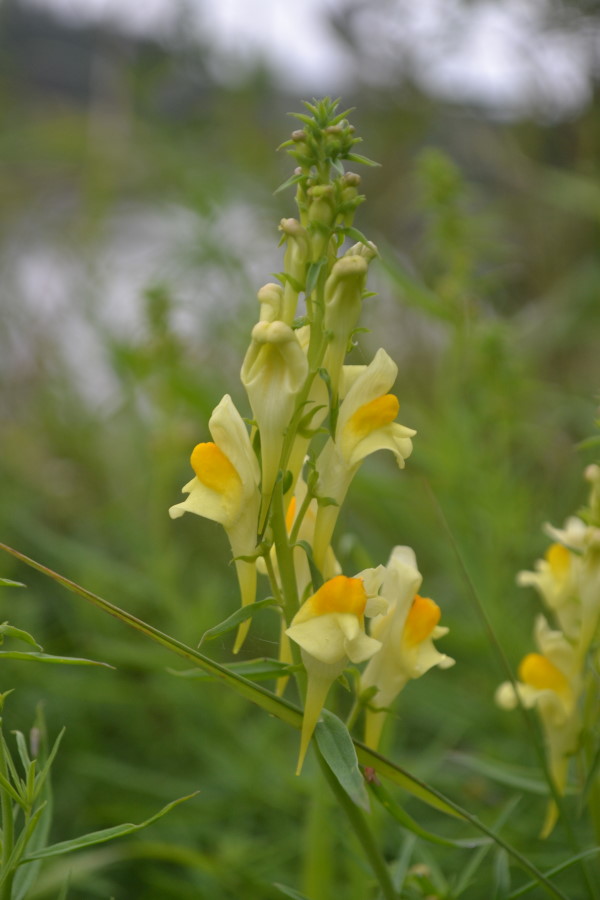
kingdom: Plantae
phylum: Tracheophyta
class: Magnoliopsida
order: Lamiales
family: Plantaginaceae
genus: Linaria
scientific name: Linaria vulgaris
